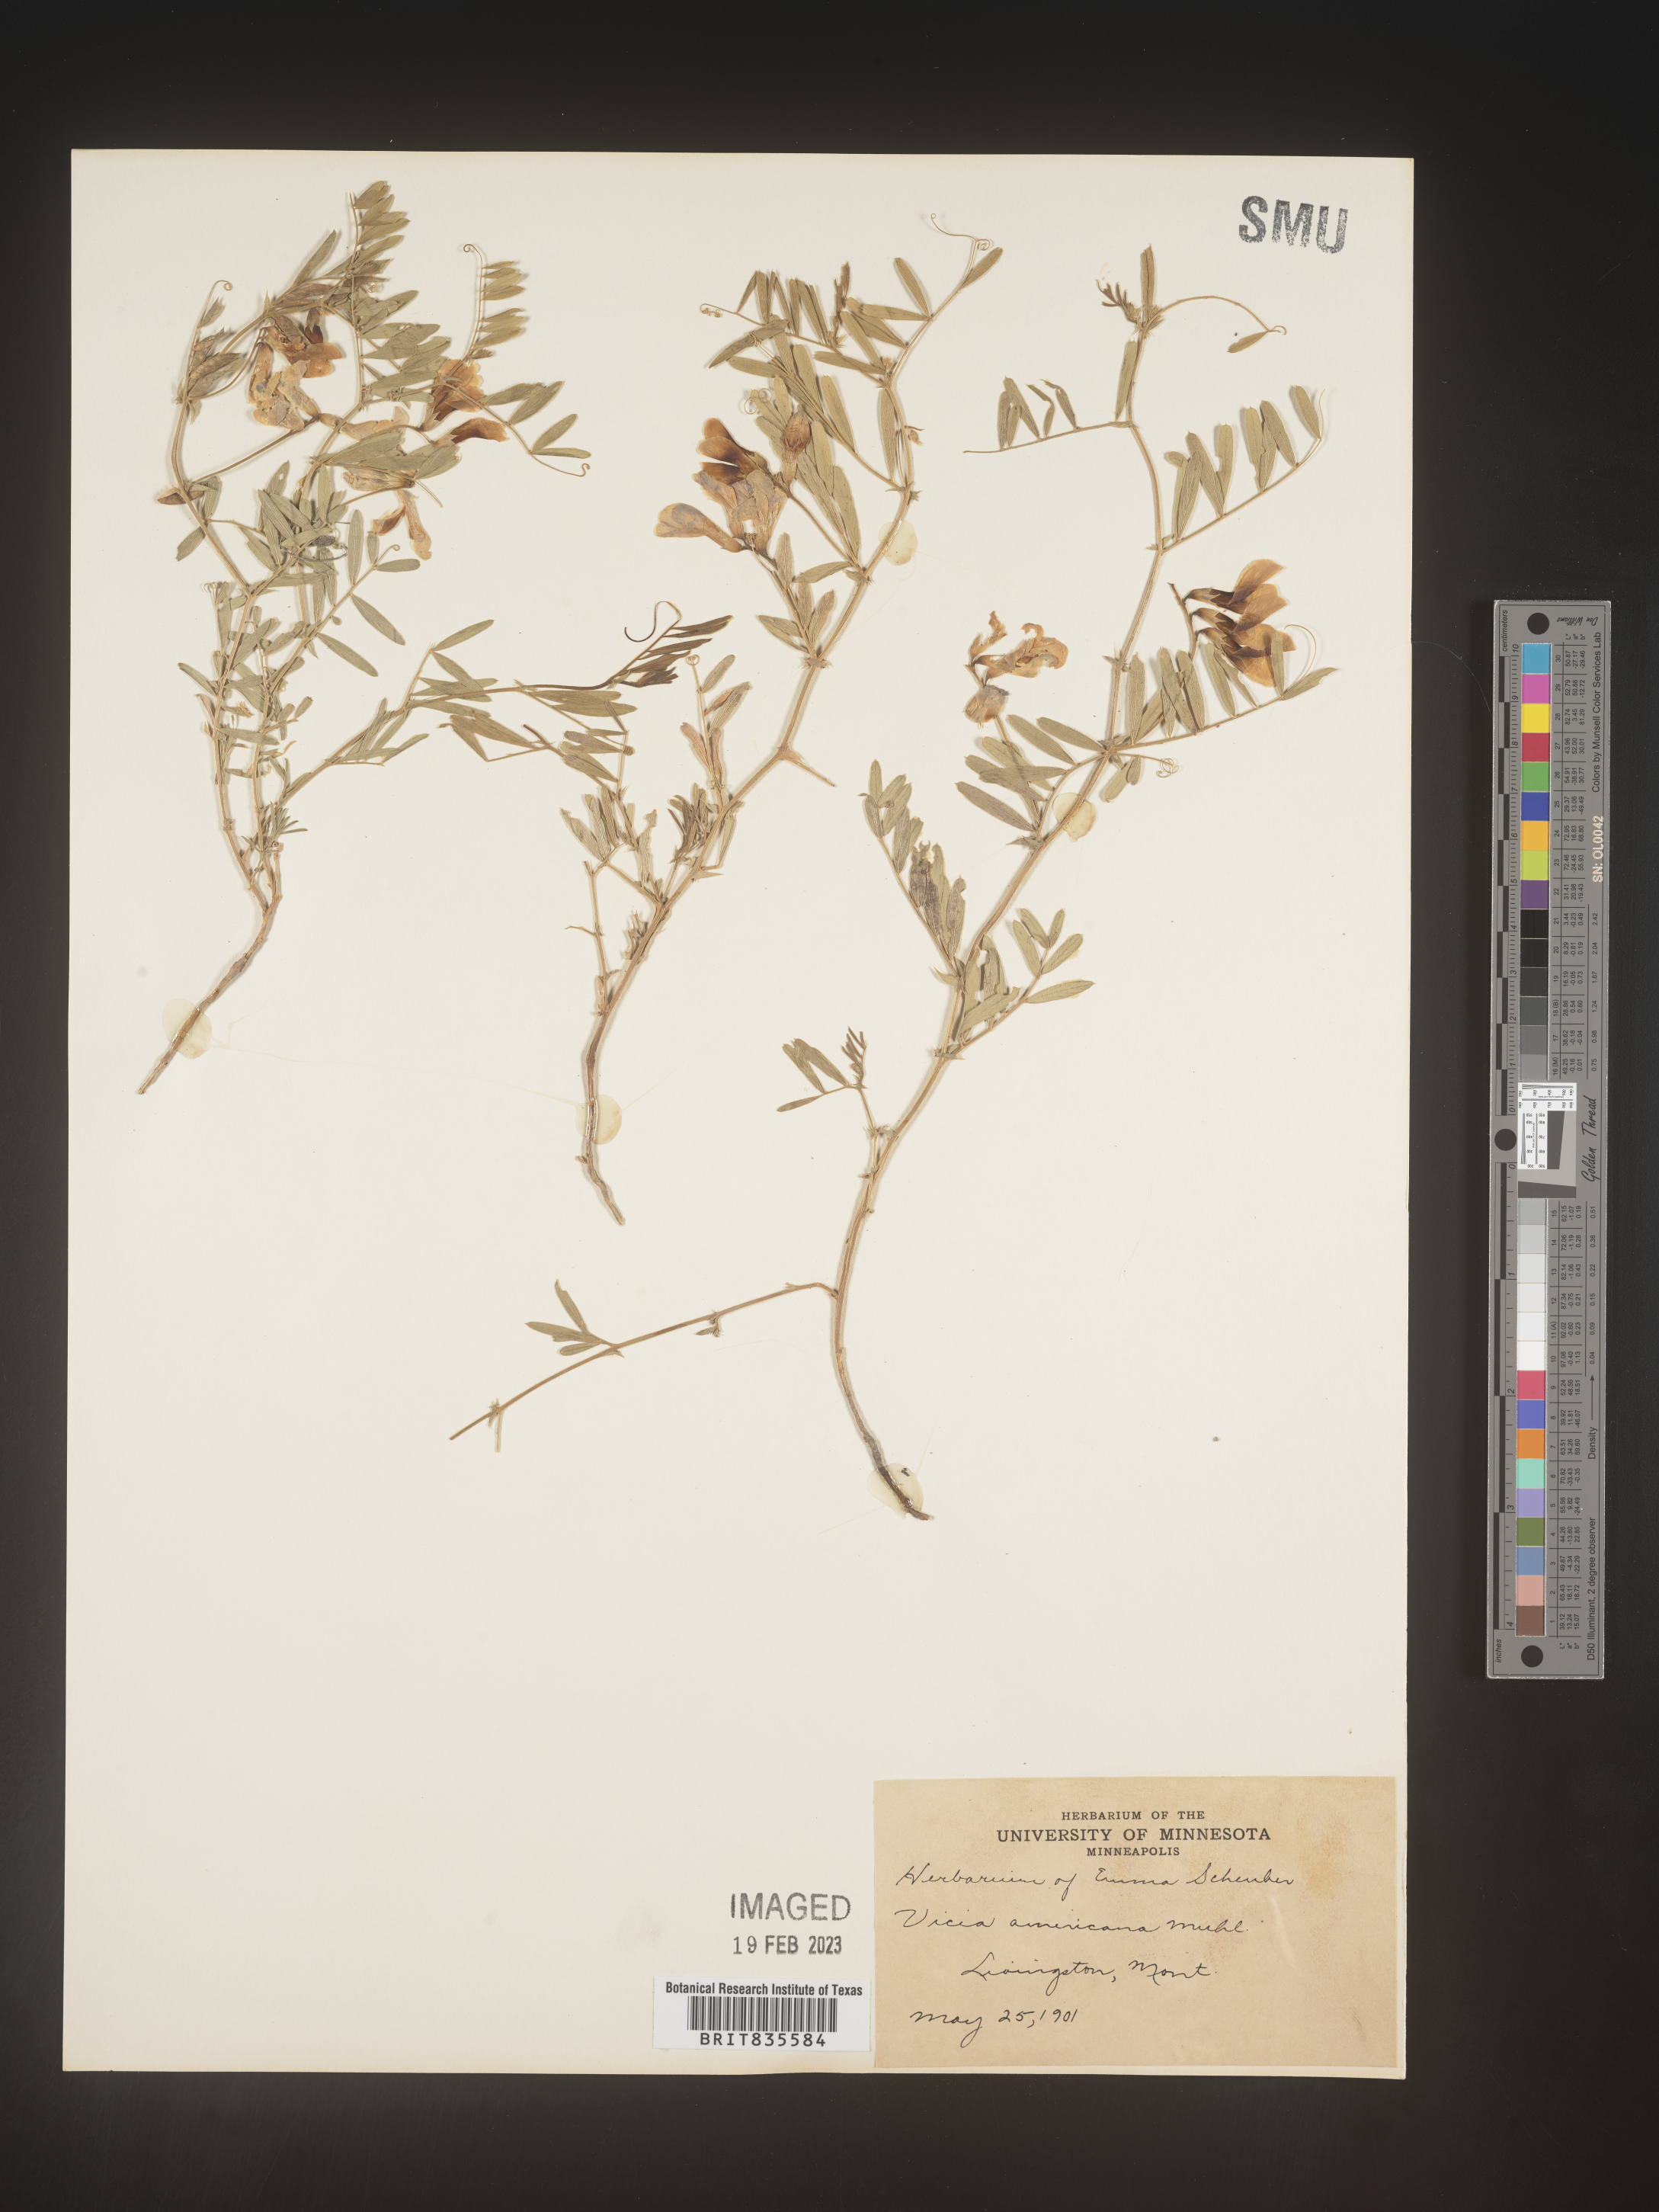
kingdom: Plantae
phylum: Tracheophyta
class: Magnoliopsida
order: Fabales
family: Fabaceae
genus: Vicia
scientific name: Vicia americana
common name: American vetch
